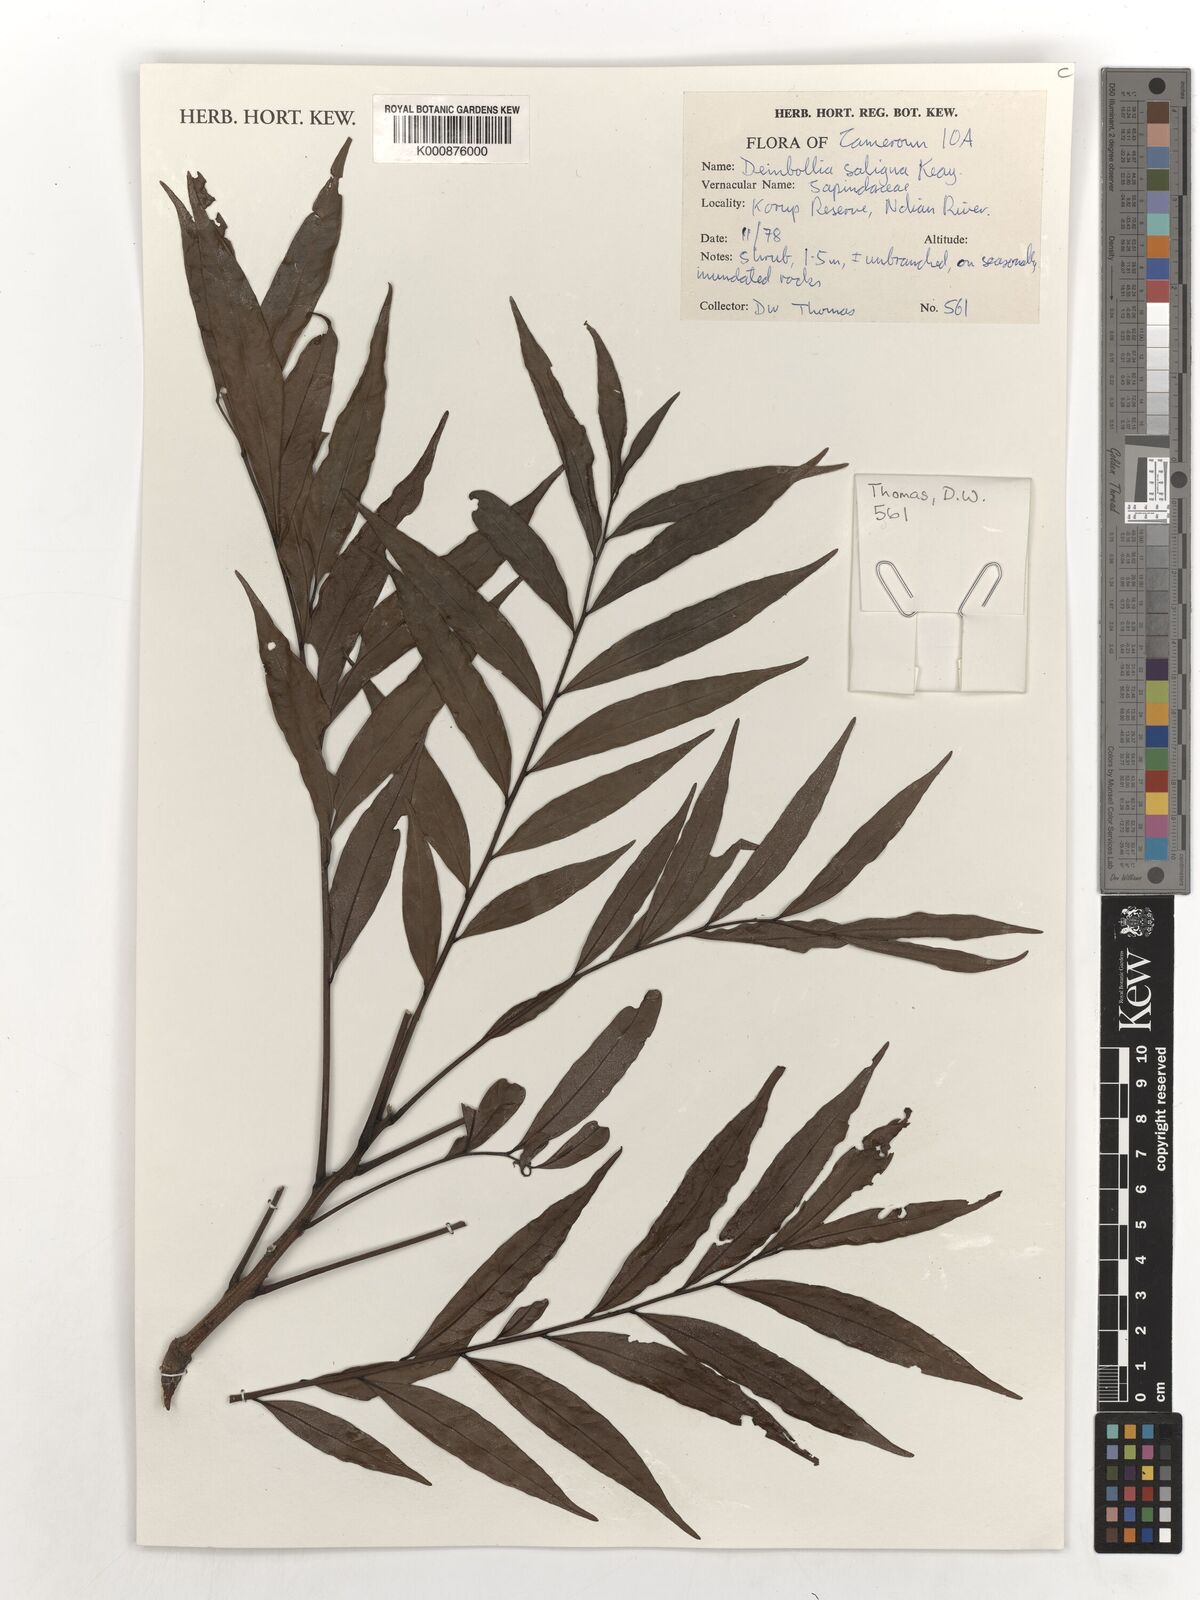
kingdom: Plantae
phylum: Tracheophyta
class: Magnoliopsida
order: Sapindales
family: Sapindaceae
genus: Deinbollia
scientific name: Deinbollia saligna
